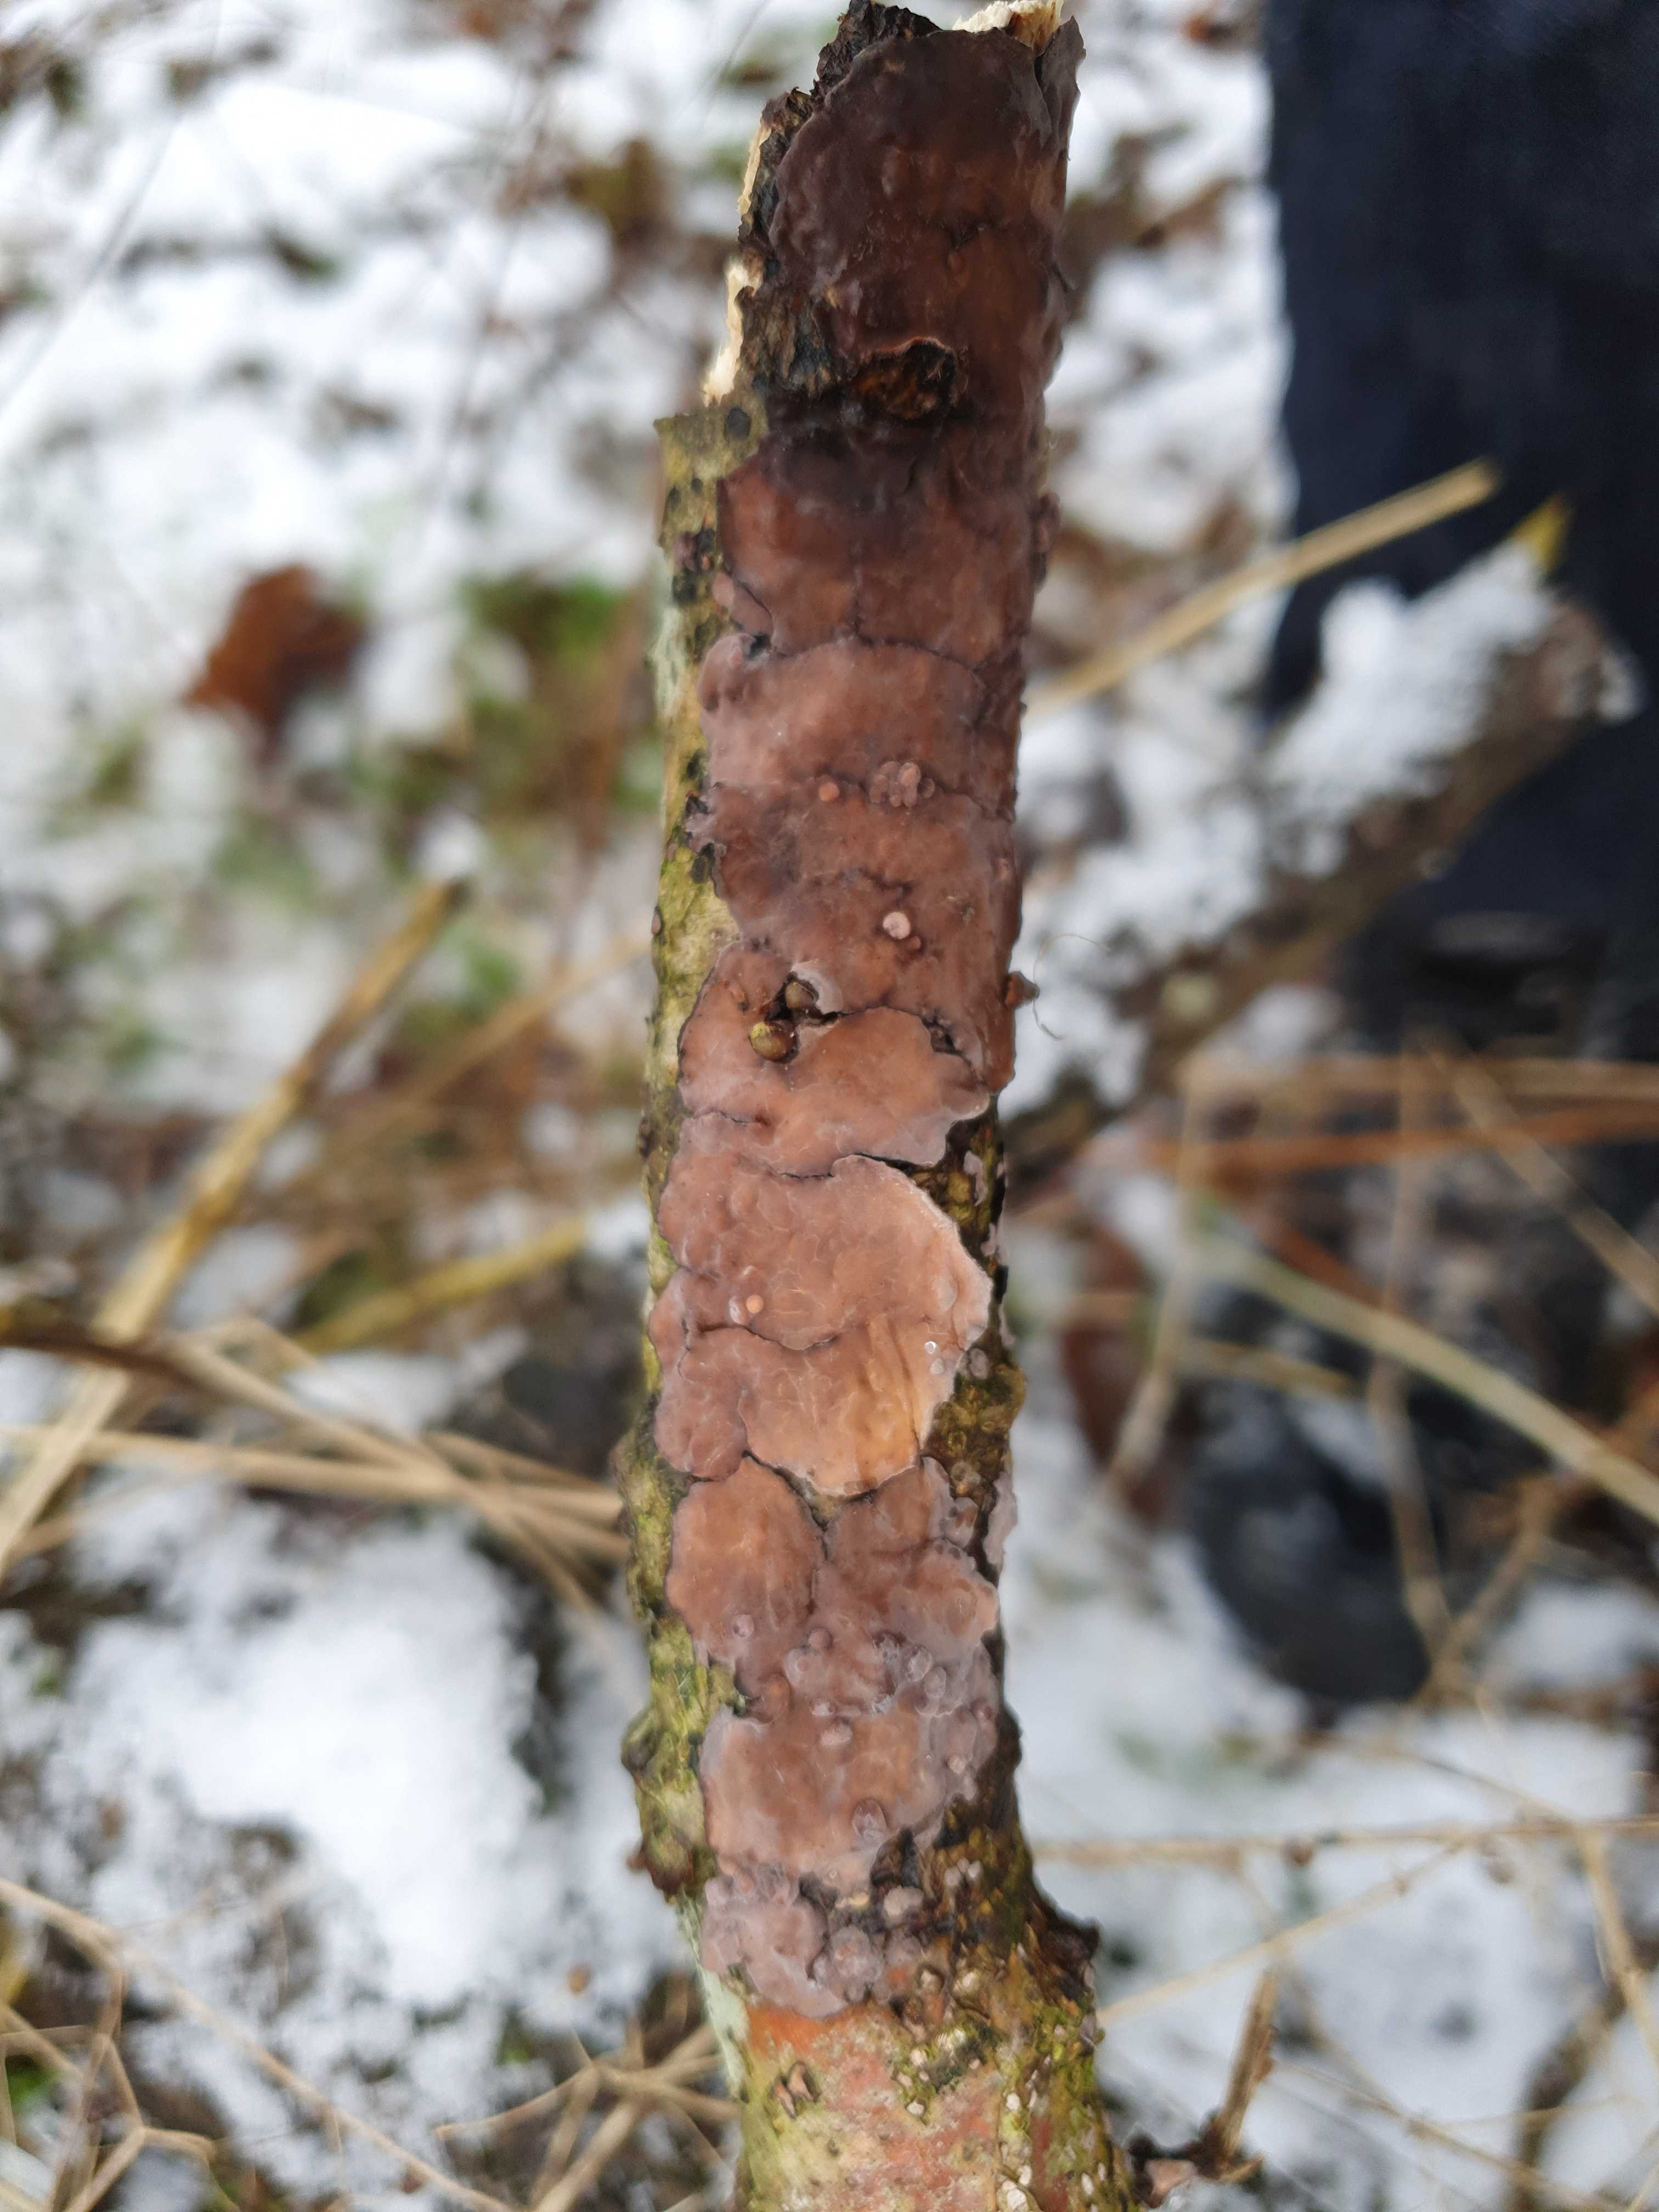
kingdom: Fungi
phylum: Basidiomycota
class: Agaricomycetes
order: Russulales
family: Peniophoraceae
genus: Peniophora
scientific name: Peniophora quercina
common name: ege-voksskind
